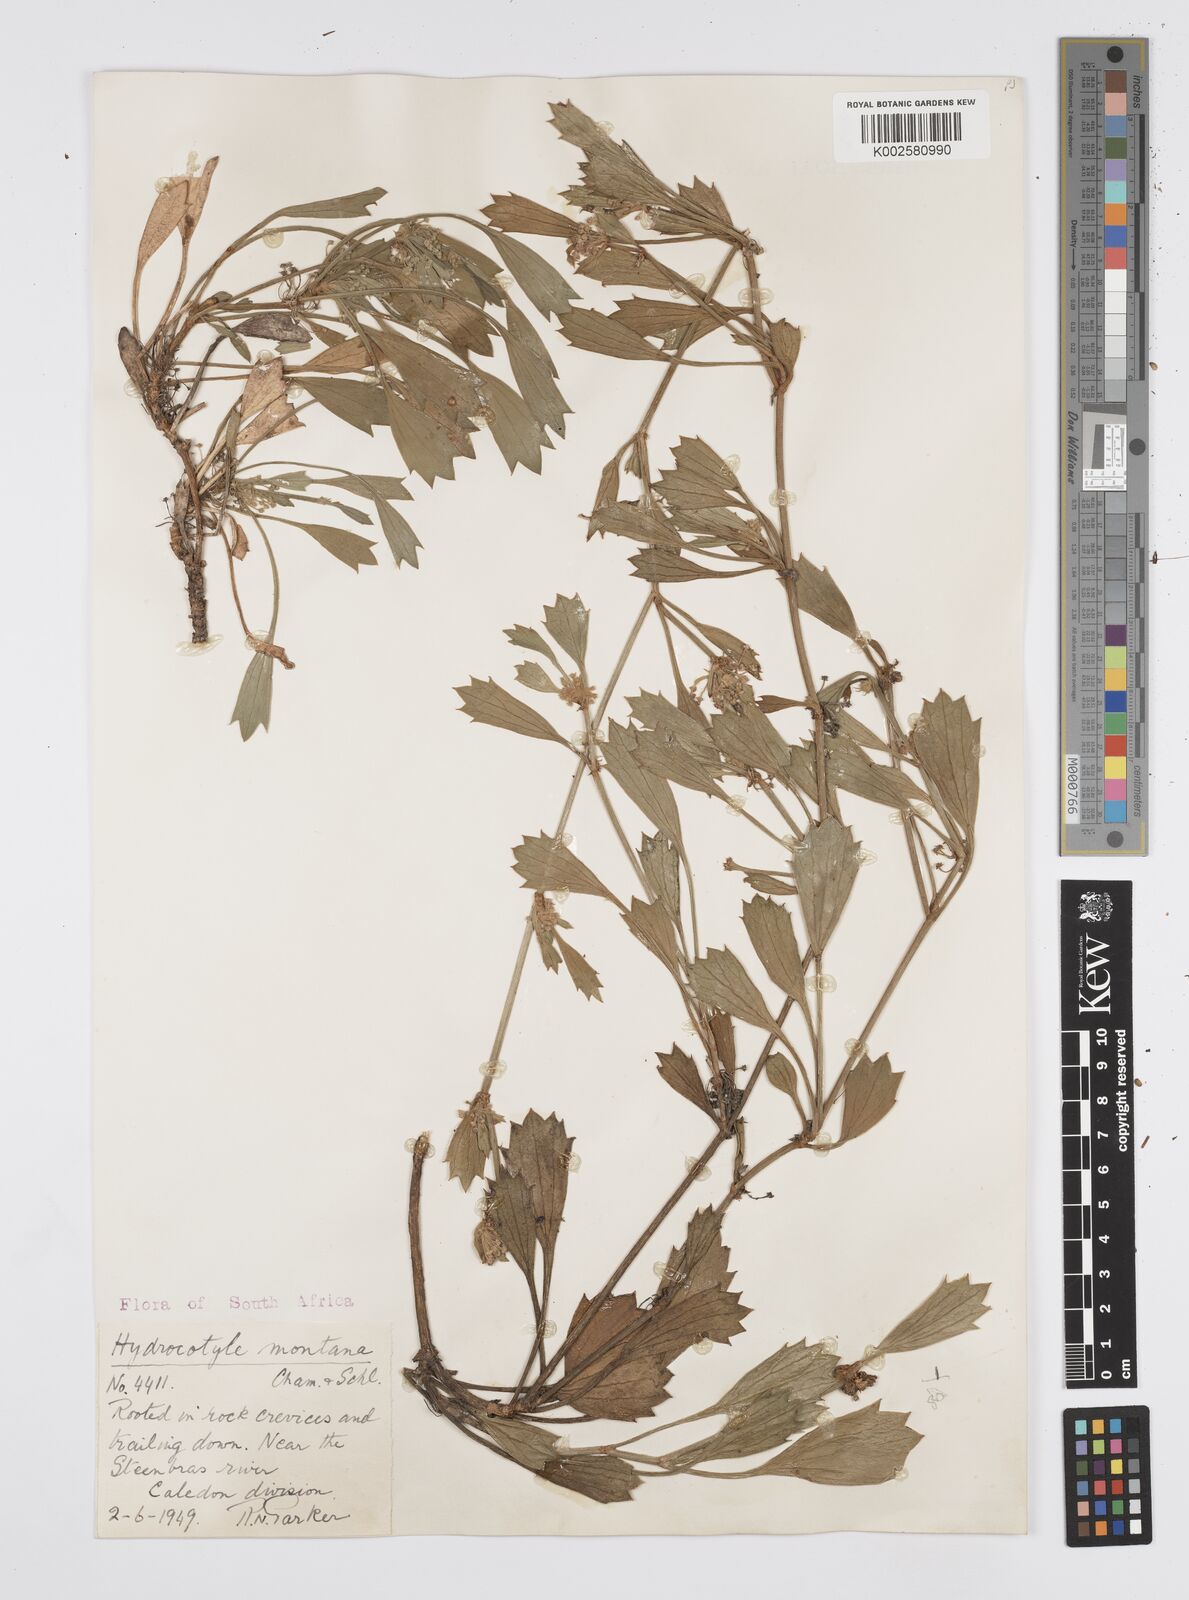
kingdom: Plantae
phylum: Tracheophyta
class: Magnoliopsida
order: Apiales
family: Apiaceae
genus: Centella
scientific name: Centella montana
